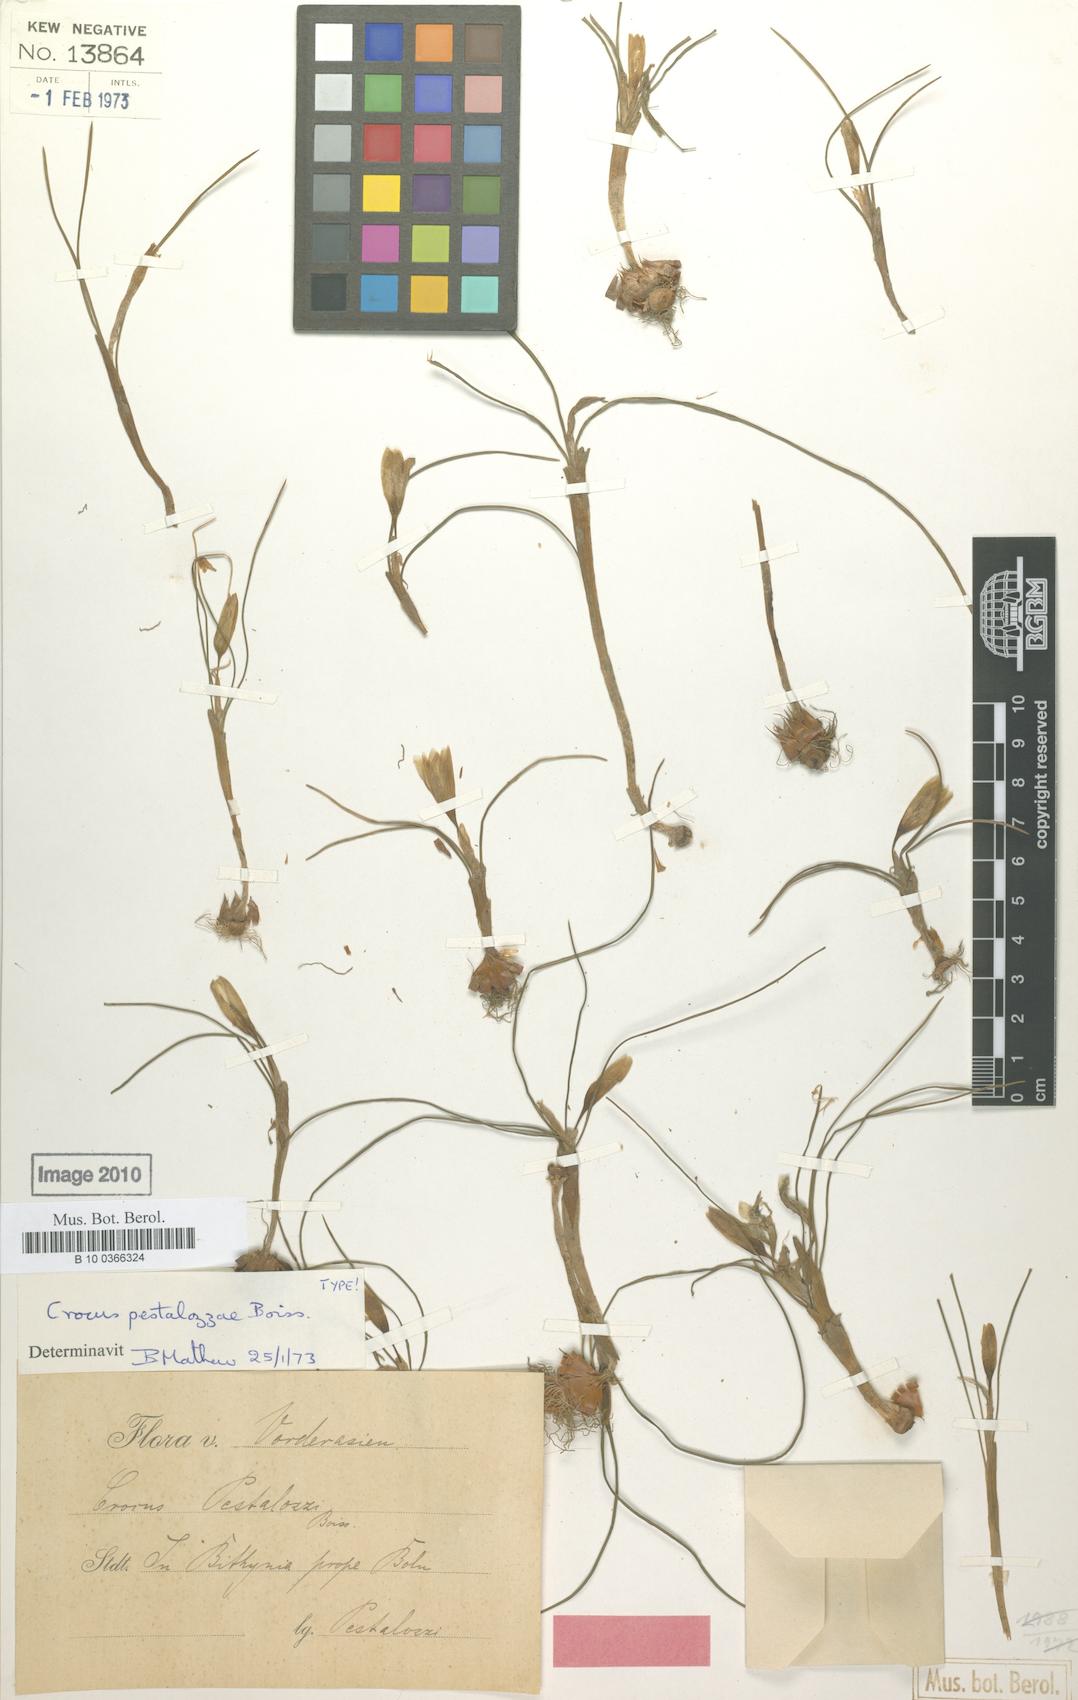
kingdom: Plantae
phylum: Tracheophyta
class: Liliopsida
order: Asparagales
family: Iridaceae
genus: Crocus
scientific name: Crocus pestalozzae
